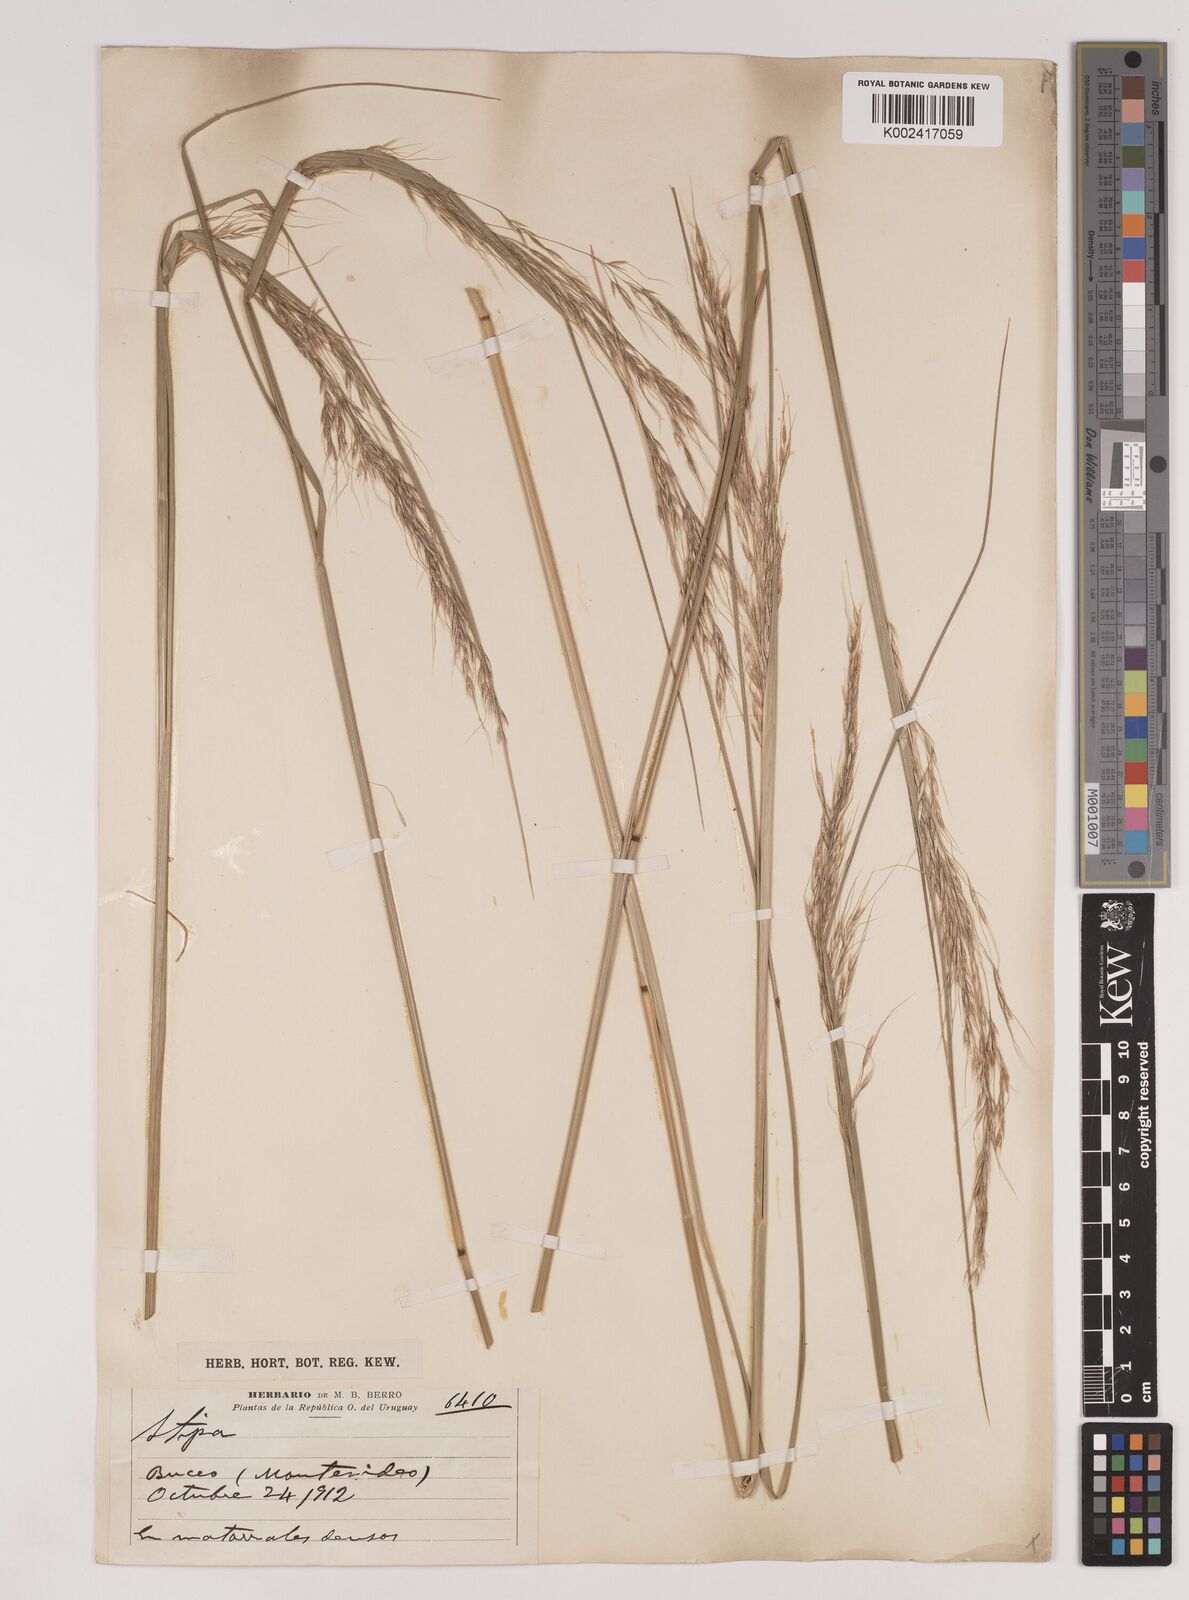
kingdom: Plantae
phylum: Tracheophyta
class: Liliopsida
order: Poales
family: Poaceae
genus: Amelichloa
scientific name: Amelichloa brachychaeta
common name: Shortbristled needlegrass
